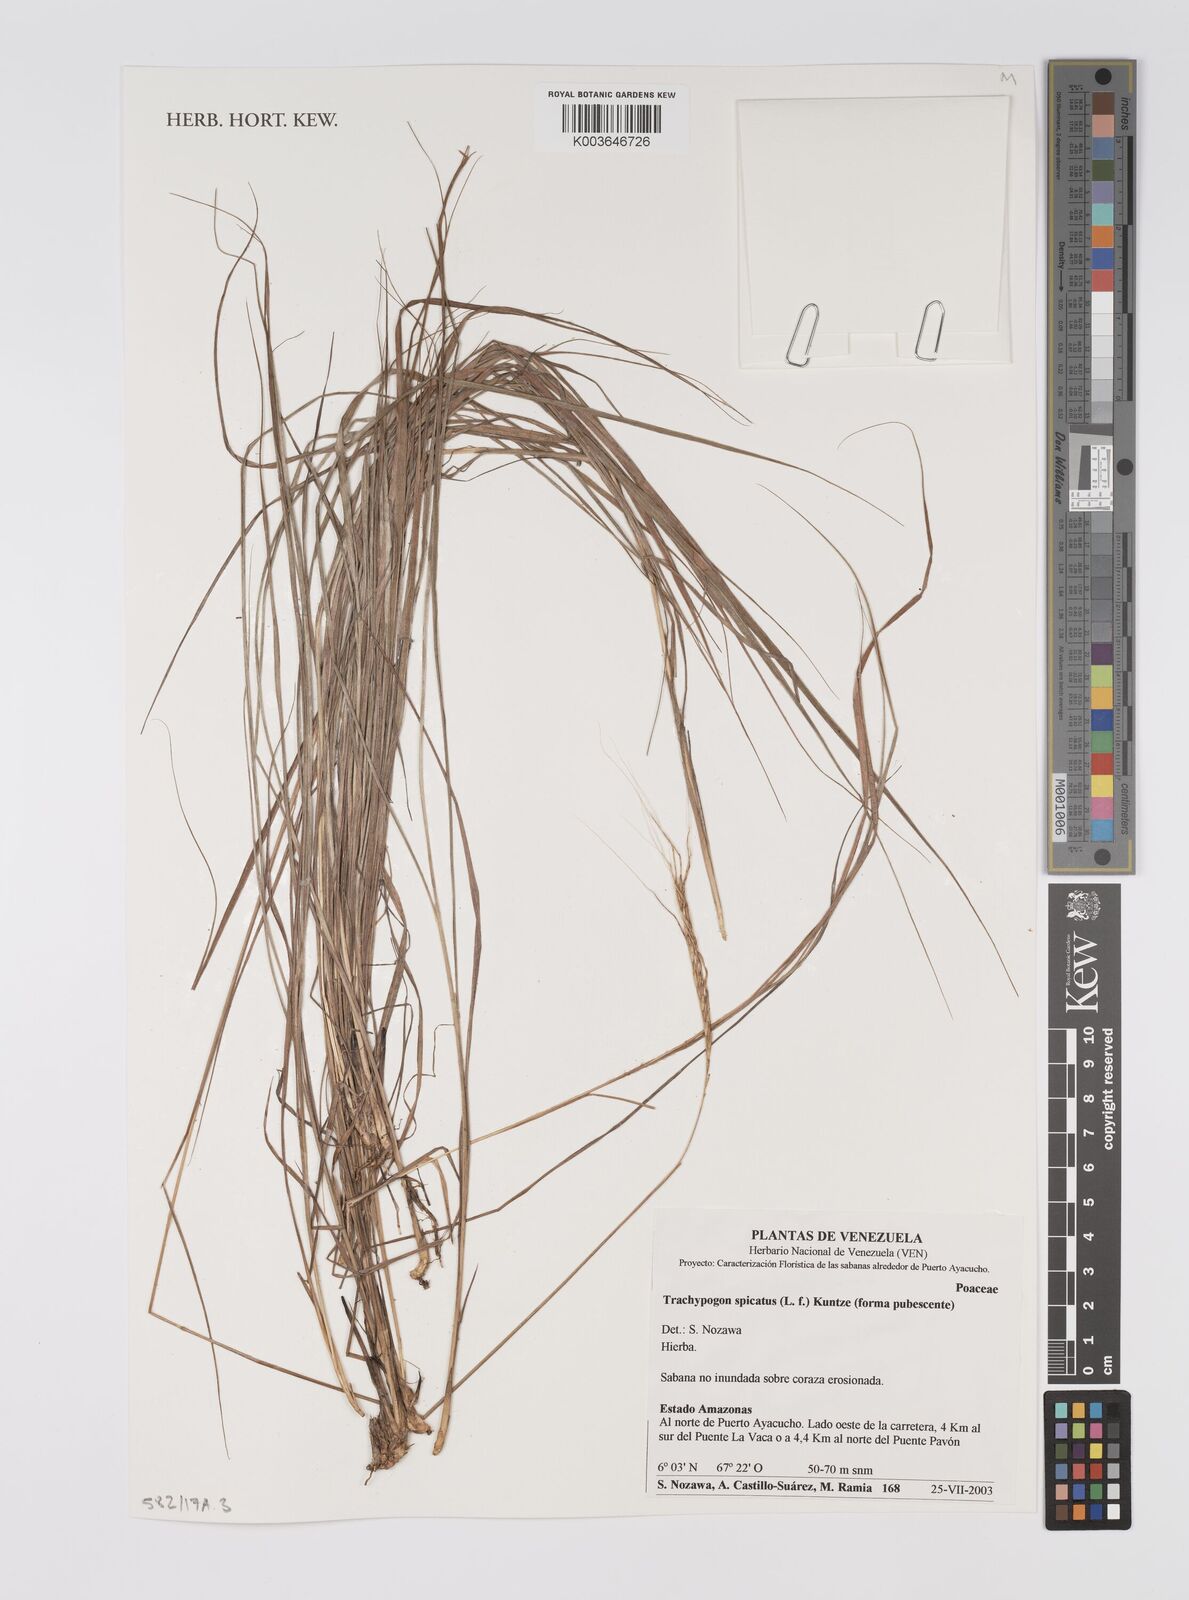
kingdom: Plantae
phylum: Tracheophyta
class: Liliopsida
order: Poales
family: Poaceae
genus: Trachypogon
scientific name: Trachypogon spicatus
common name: Crinkle-awn
